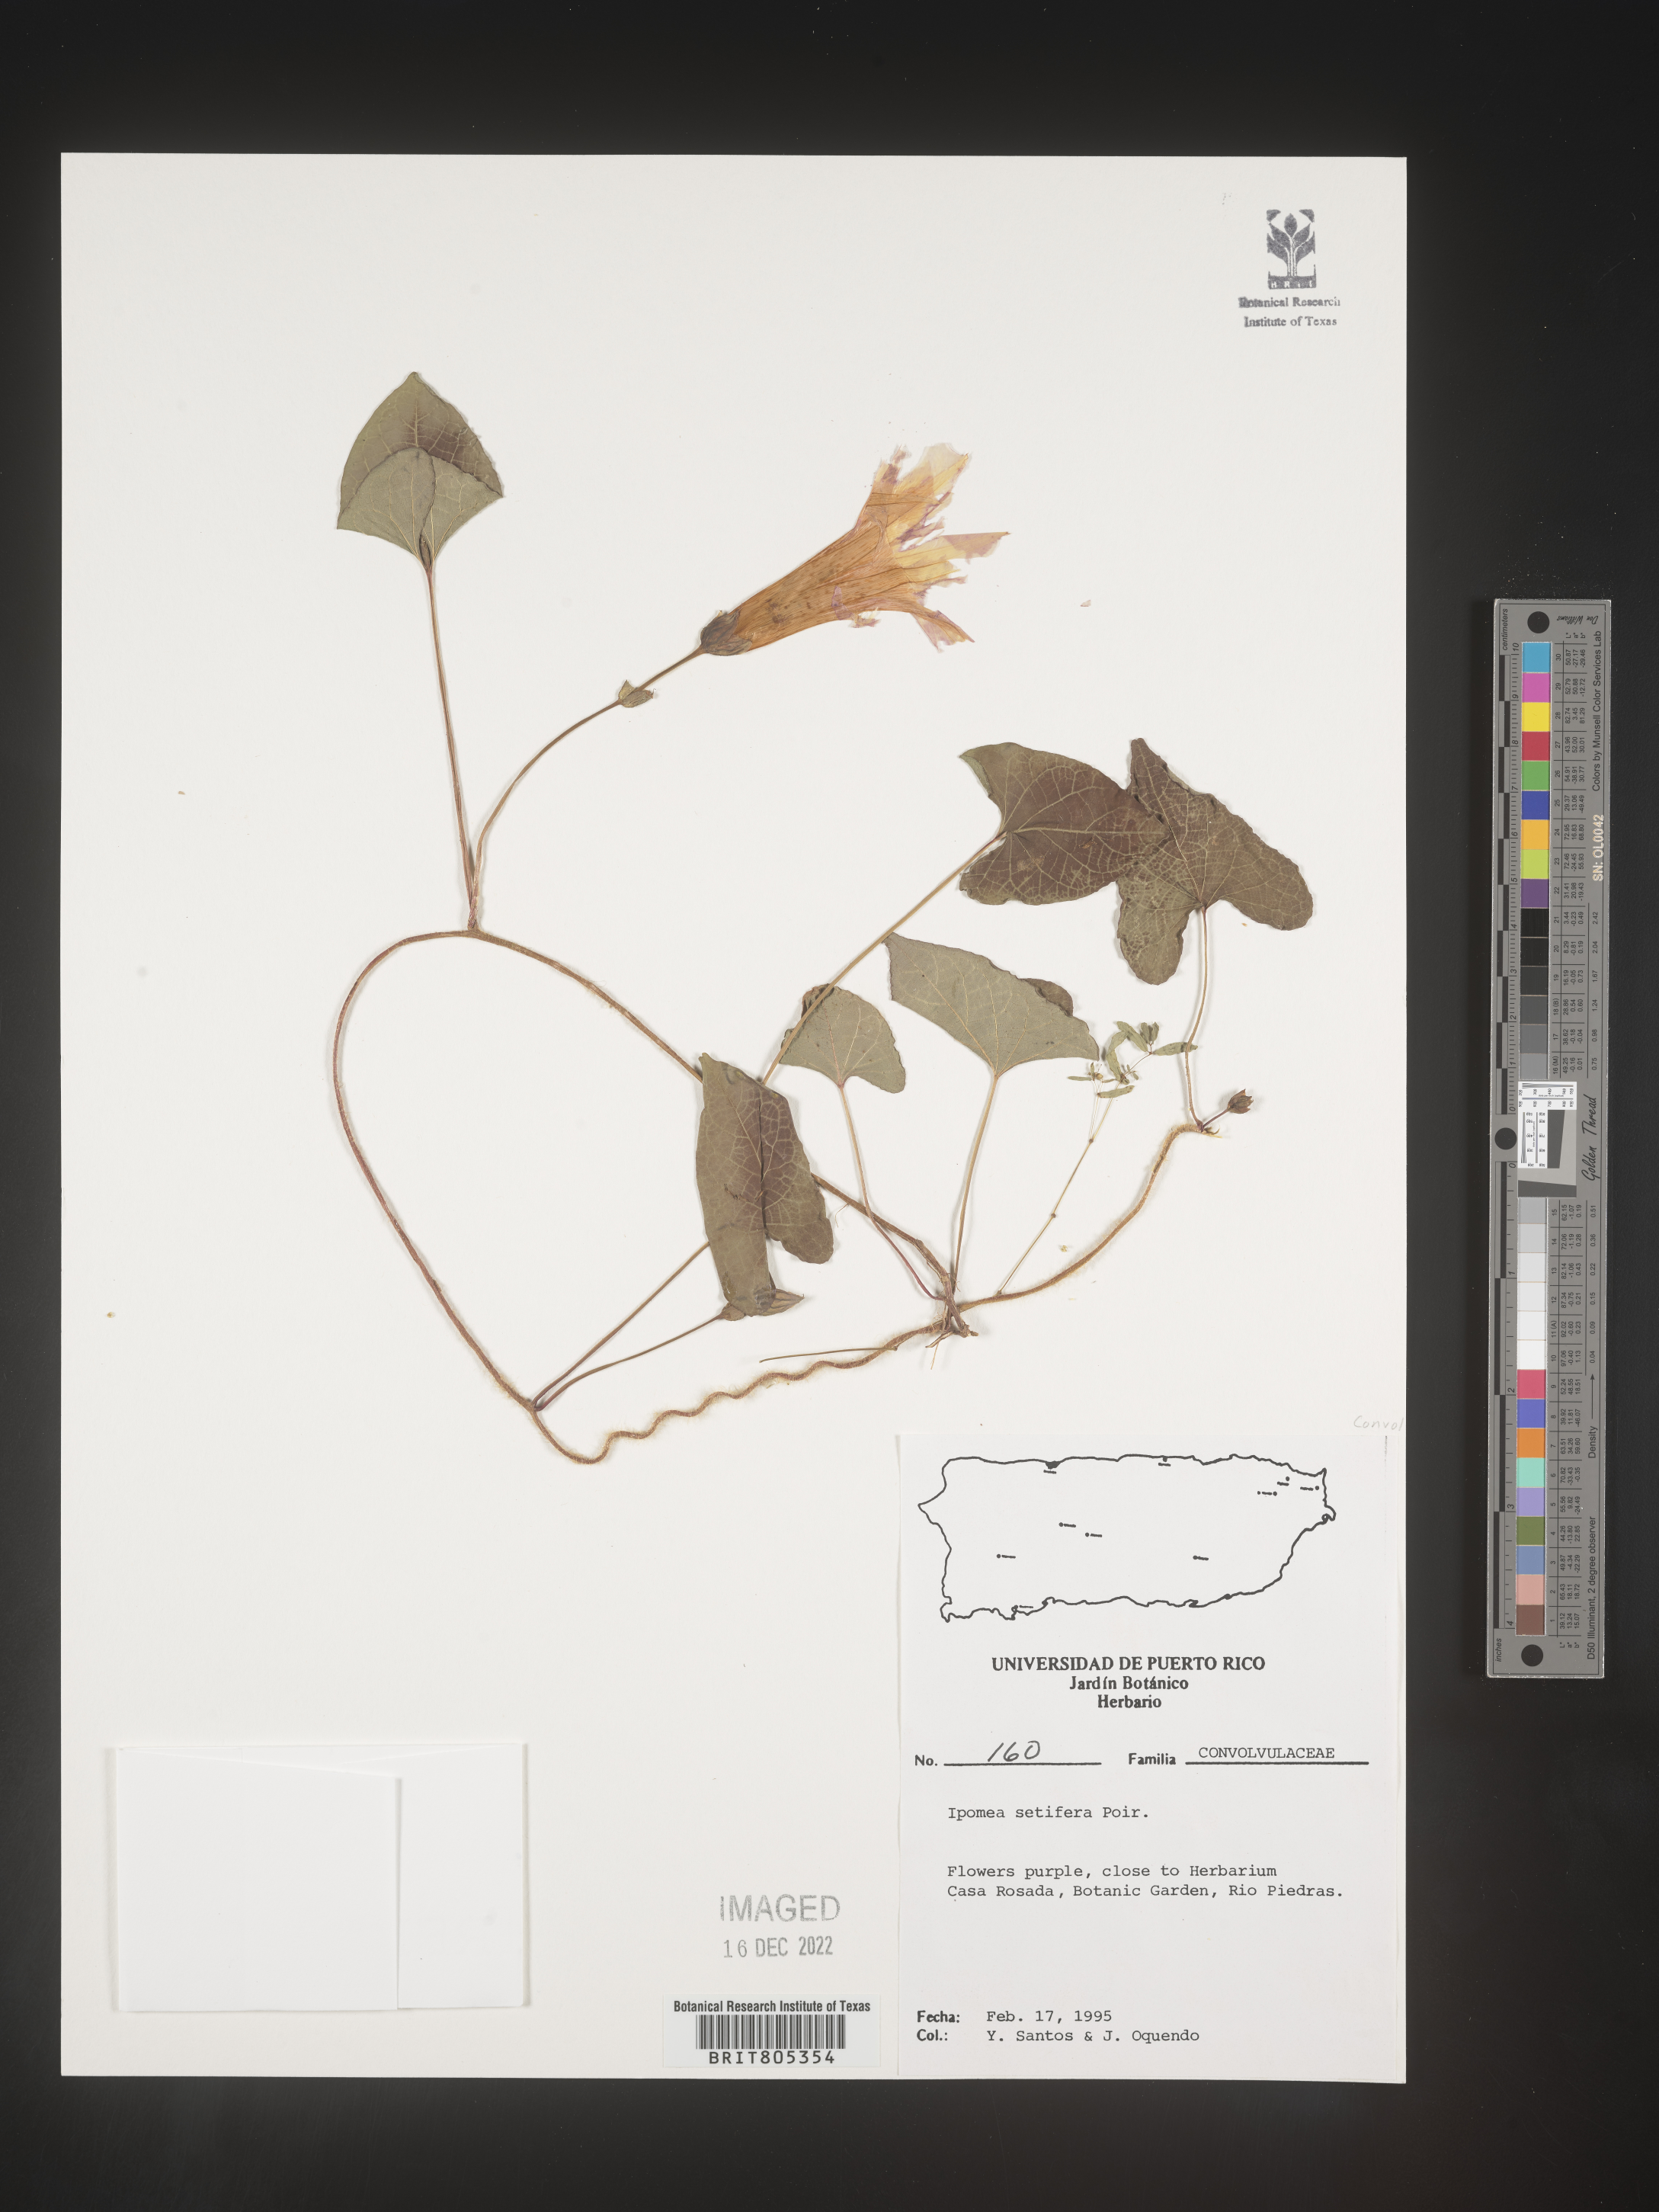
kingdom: Plantae
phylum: Tracheophyta
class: Magnoliopsida
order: Solanales
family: Convolvulaceae
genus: Ipomoea
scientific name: Ipomoea
